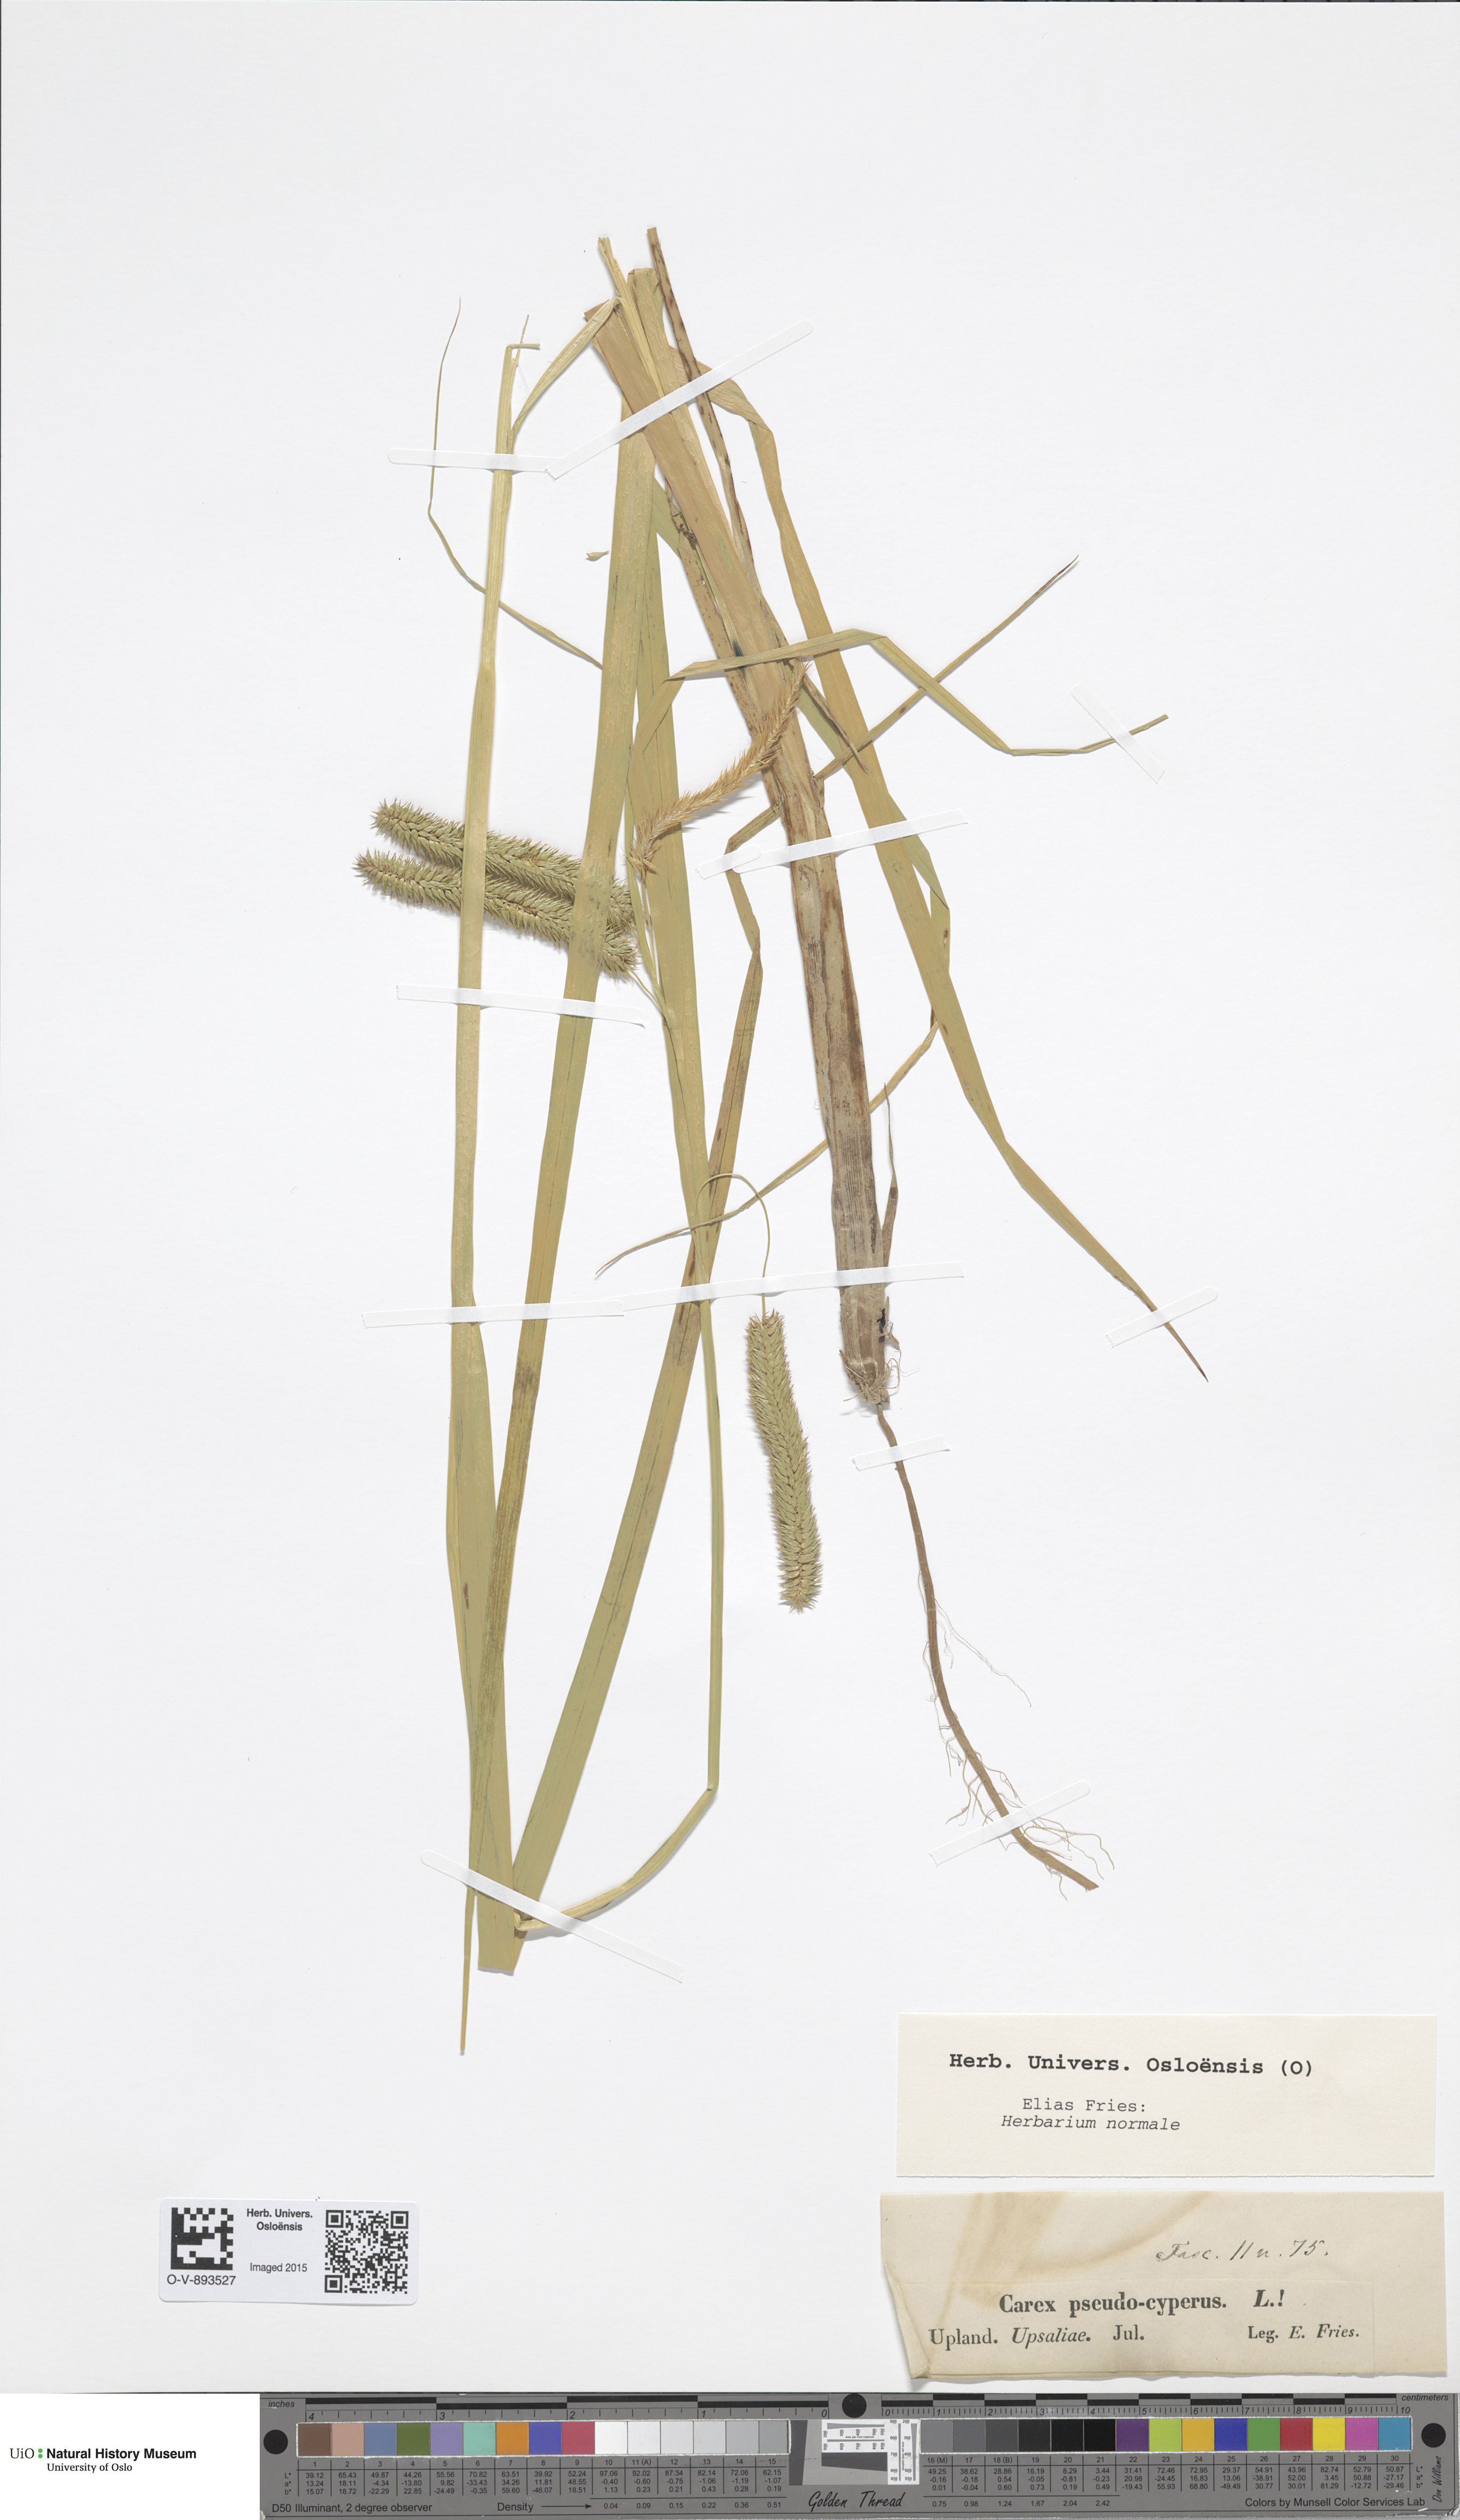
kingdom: Plantae
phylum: Tracheophyta
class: Liliopsida
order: Poales
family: Cyperaceae
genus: Carex
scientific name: Carex pseudocyperus
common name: Cyperus sedge
